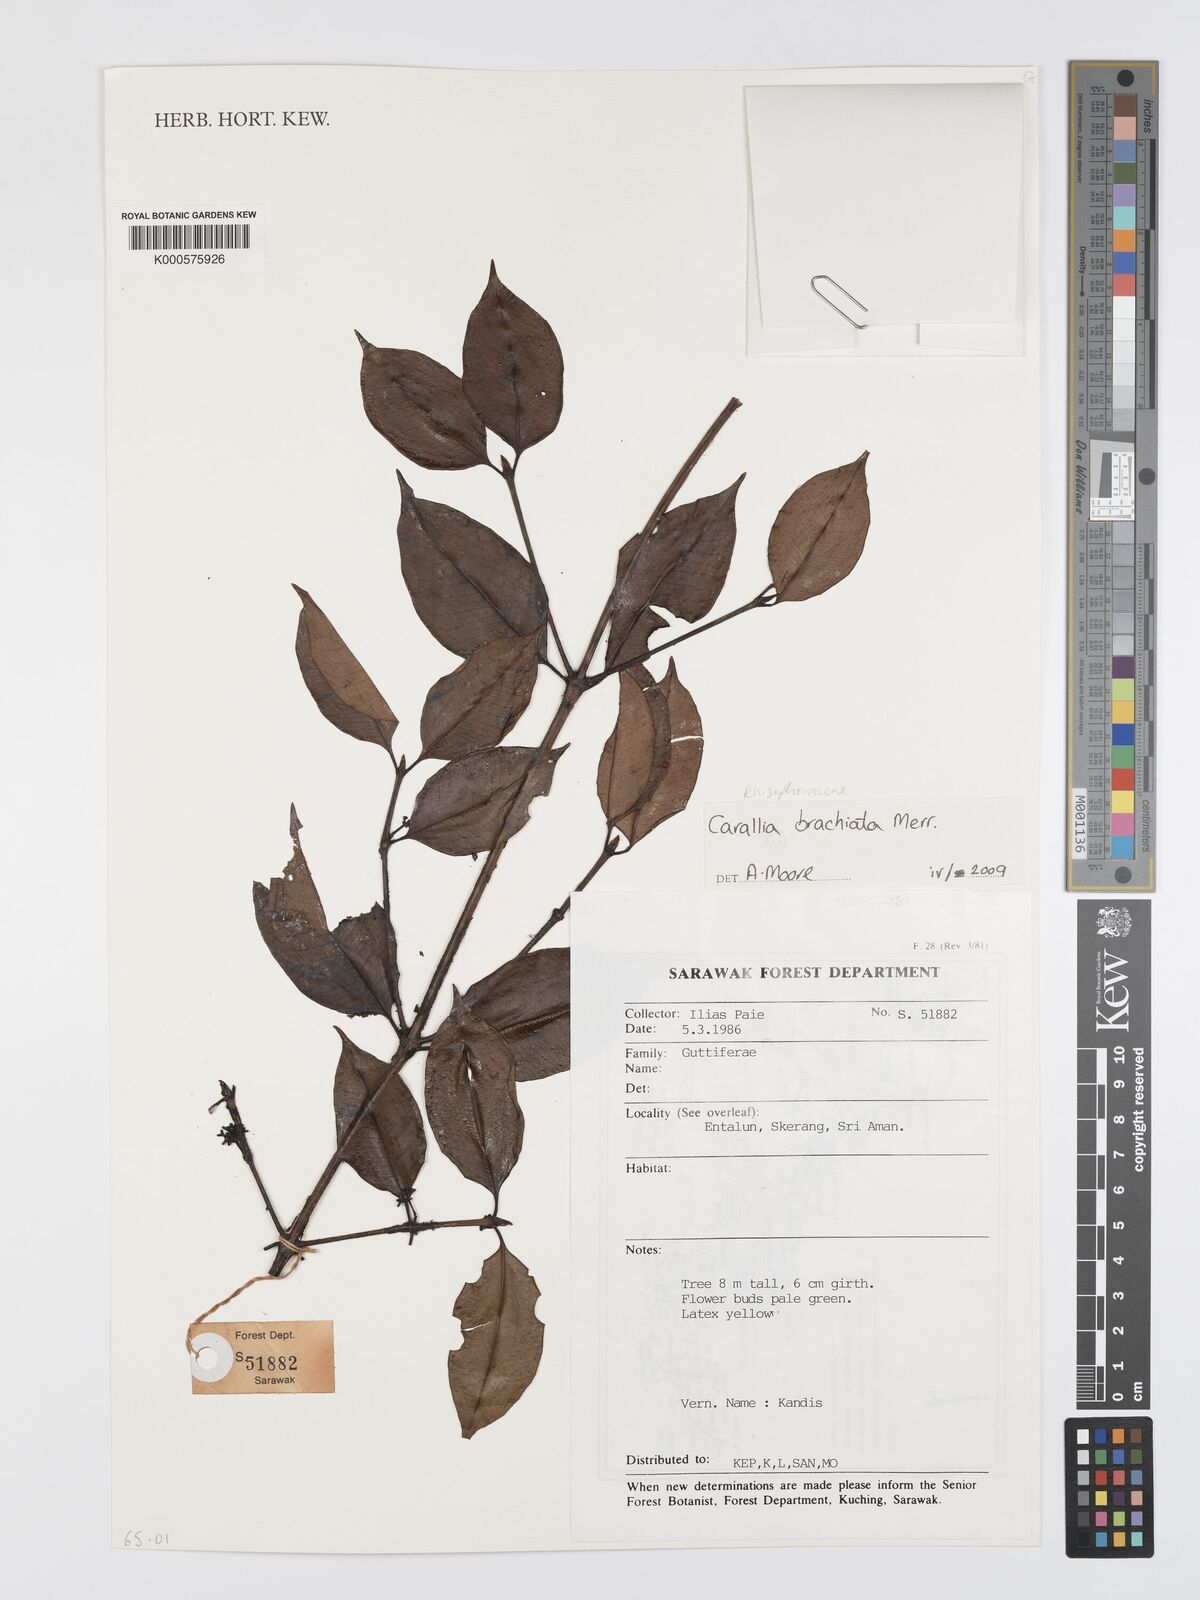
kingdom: Plantae
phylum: Tracheophyta
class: Magnoliopsida
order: Malpighiales
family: Rhizophoraceae
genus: Carallia
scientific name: Carallia brachiata
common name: Carallawood
